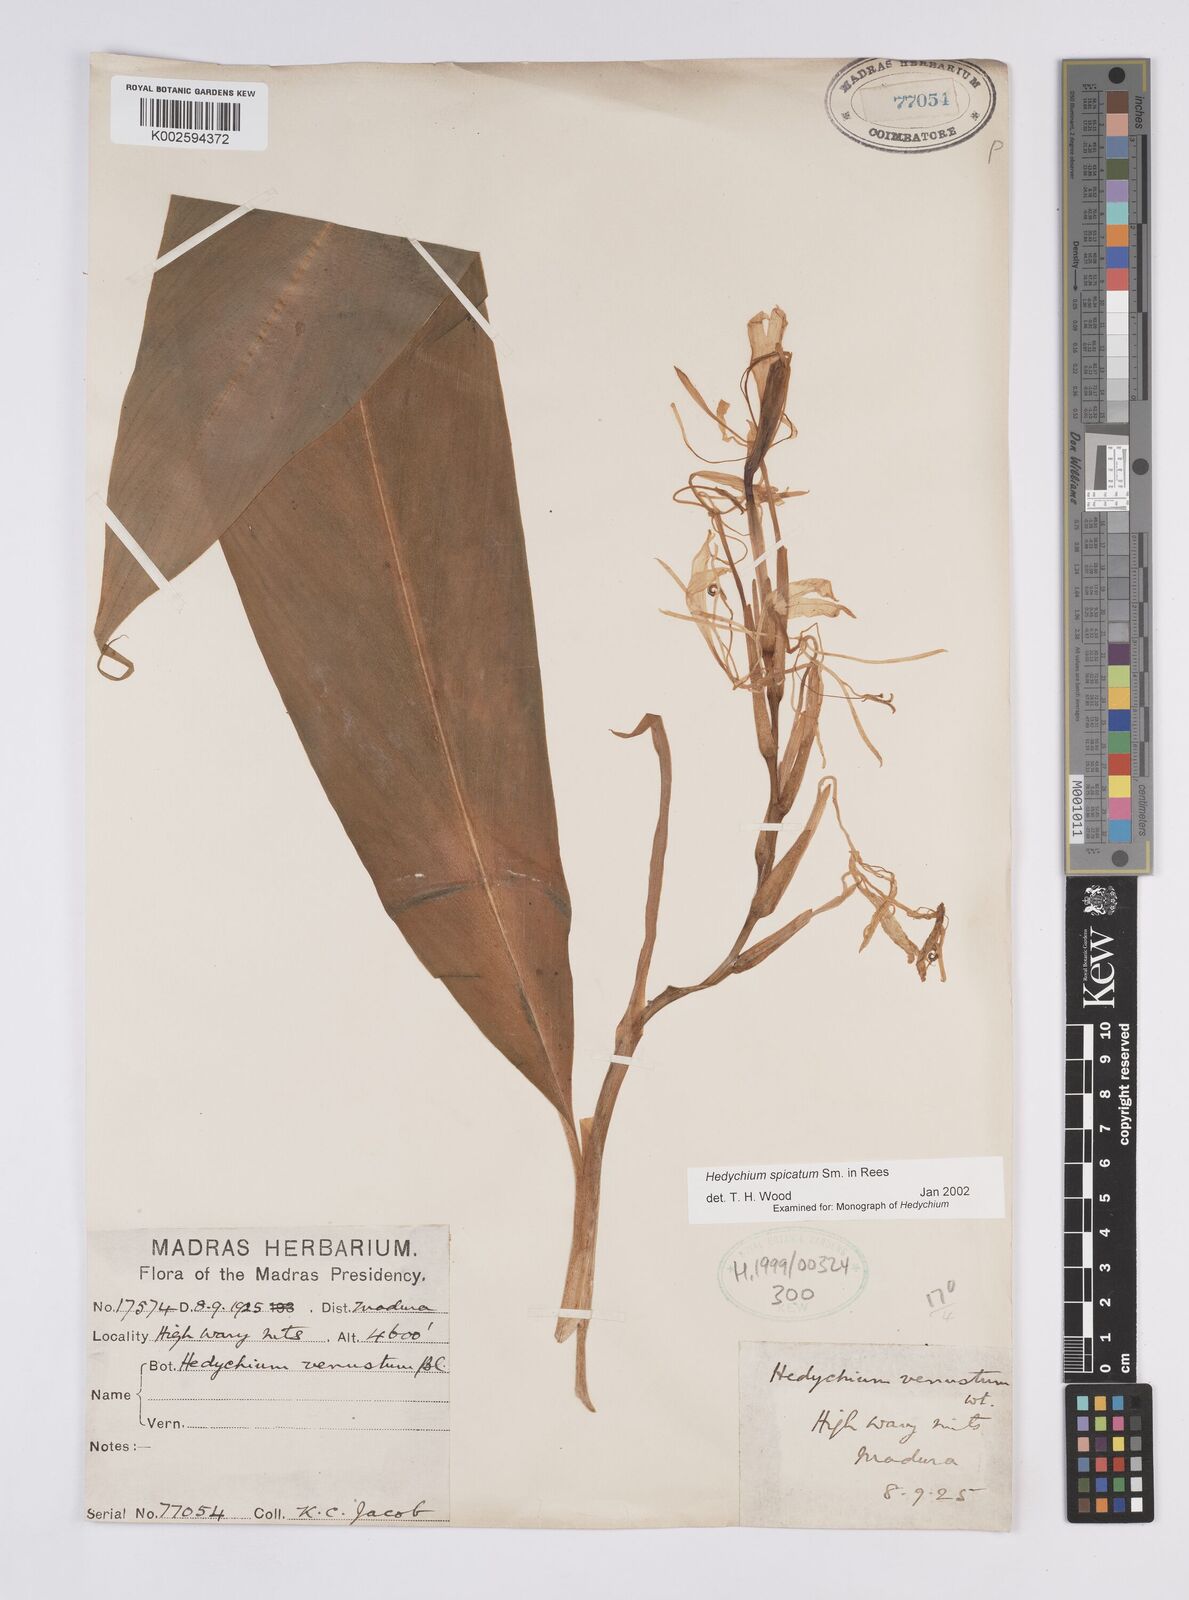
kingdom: Plantae
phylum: Tracheophyta
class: Liliopsida
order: Zingiberales
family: Zingiberaceae
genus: Hedychium
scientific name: Hedychium spicatum
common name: Spiked ginger-lily
